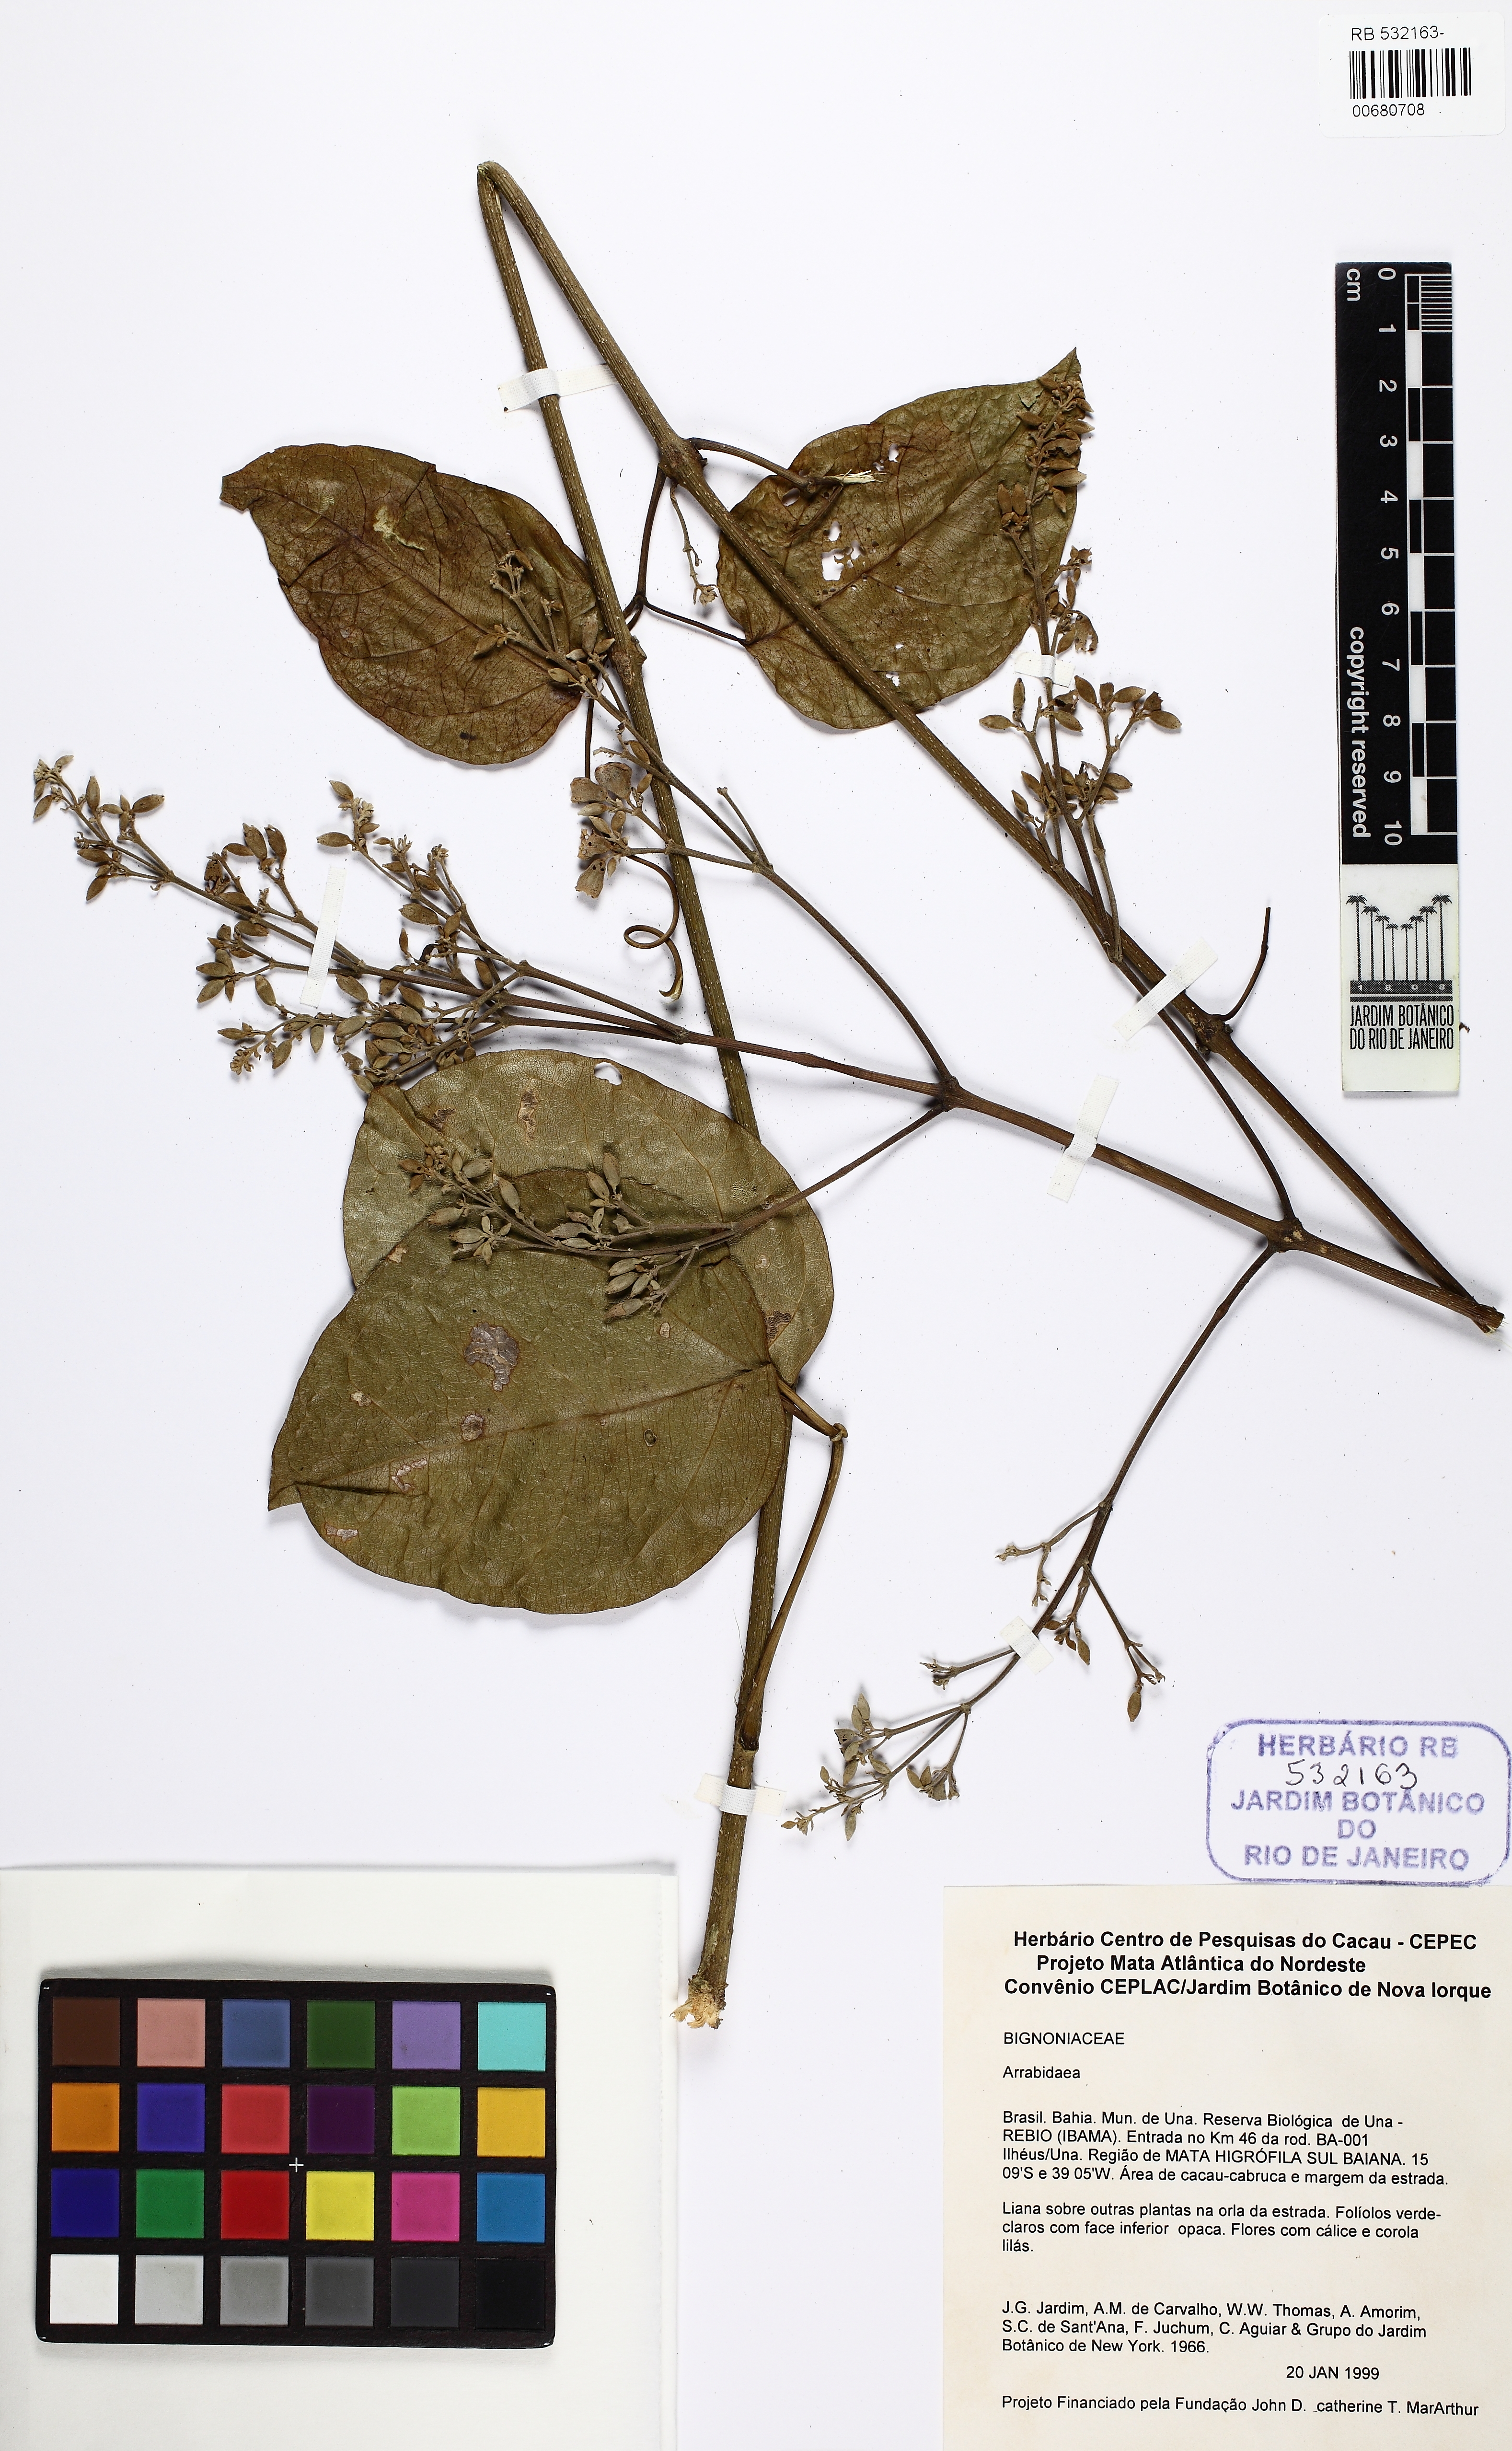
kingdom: Plantae
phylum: Tracheophyta
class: Magnoliopsida
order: Lamiales
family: Bignoniaceae
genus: Fridericia
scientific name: Fridericia conjugata
